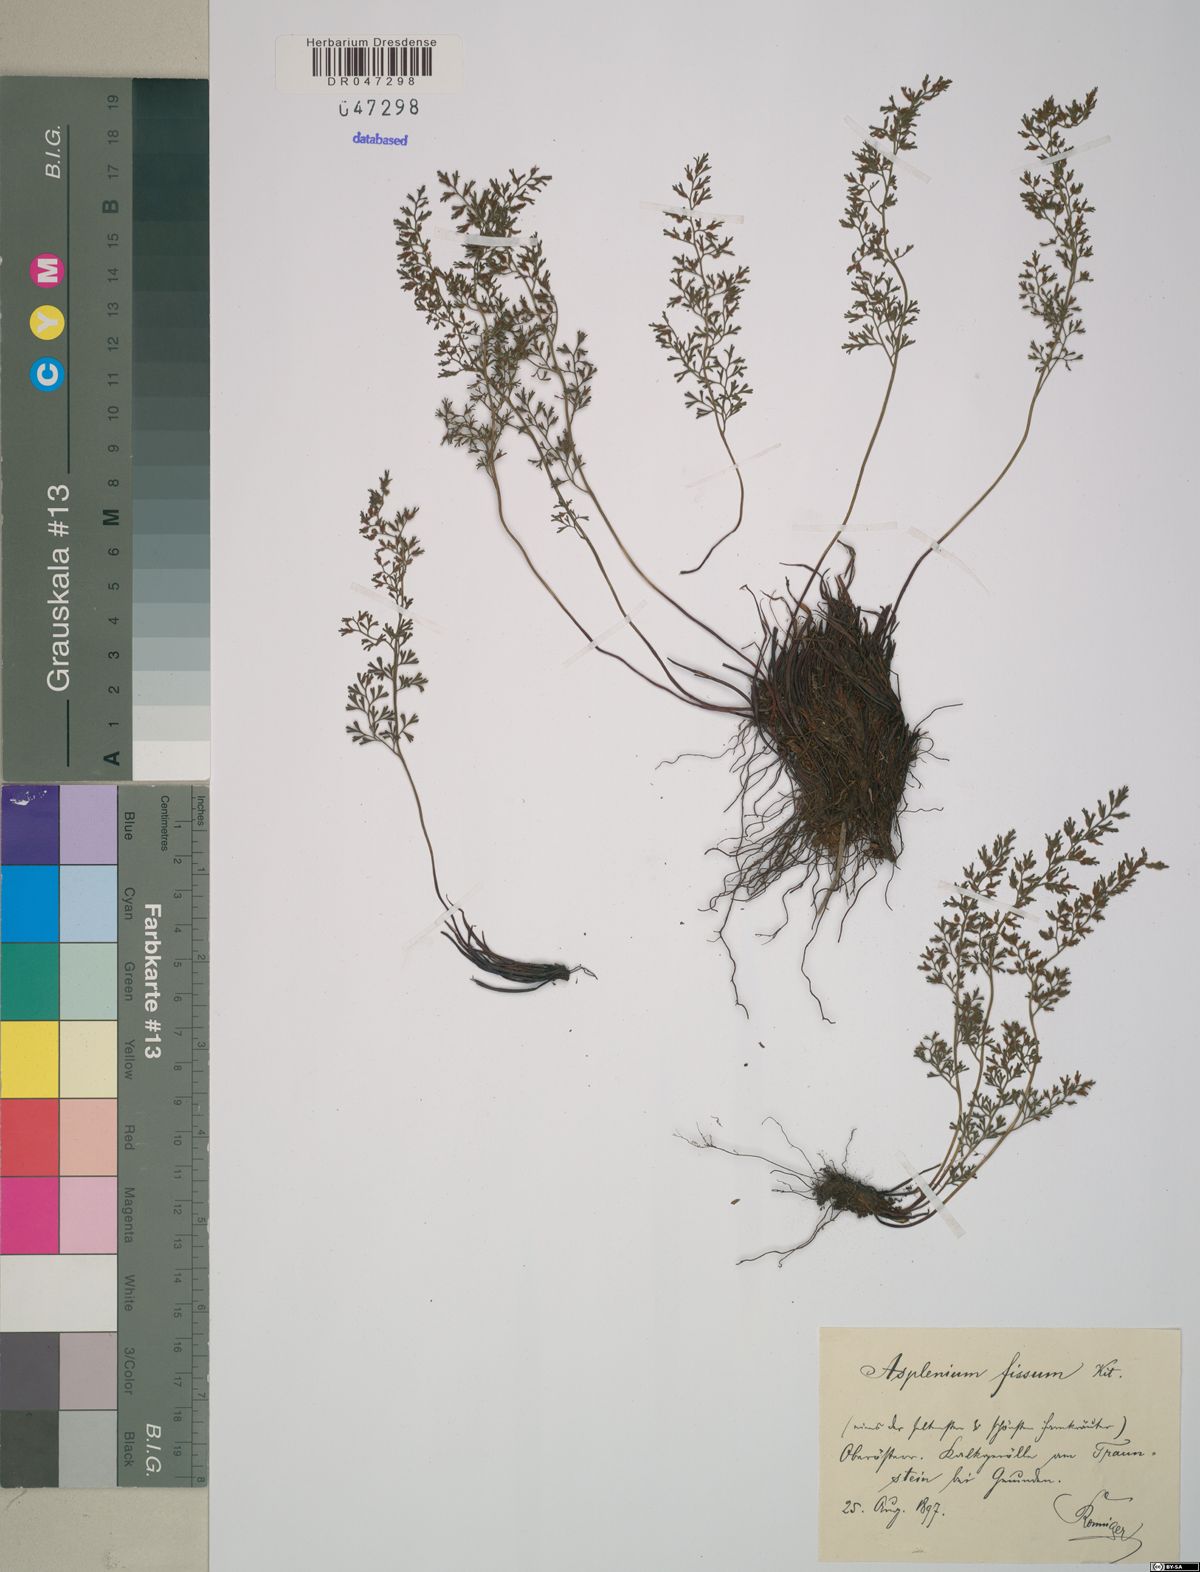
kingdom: Plantae
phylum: Tracheophyta
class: Polypodiopsida
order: Polypodiales
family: Aspleniaceae
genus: Asplenium
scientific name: Asplenium fissum
